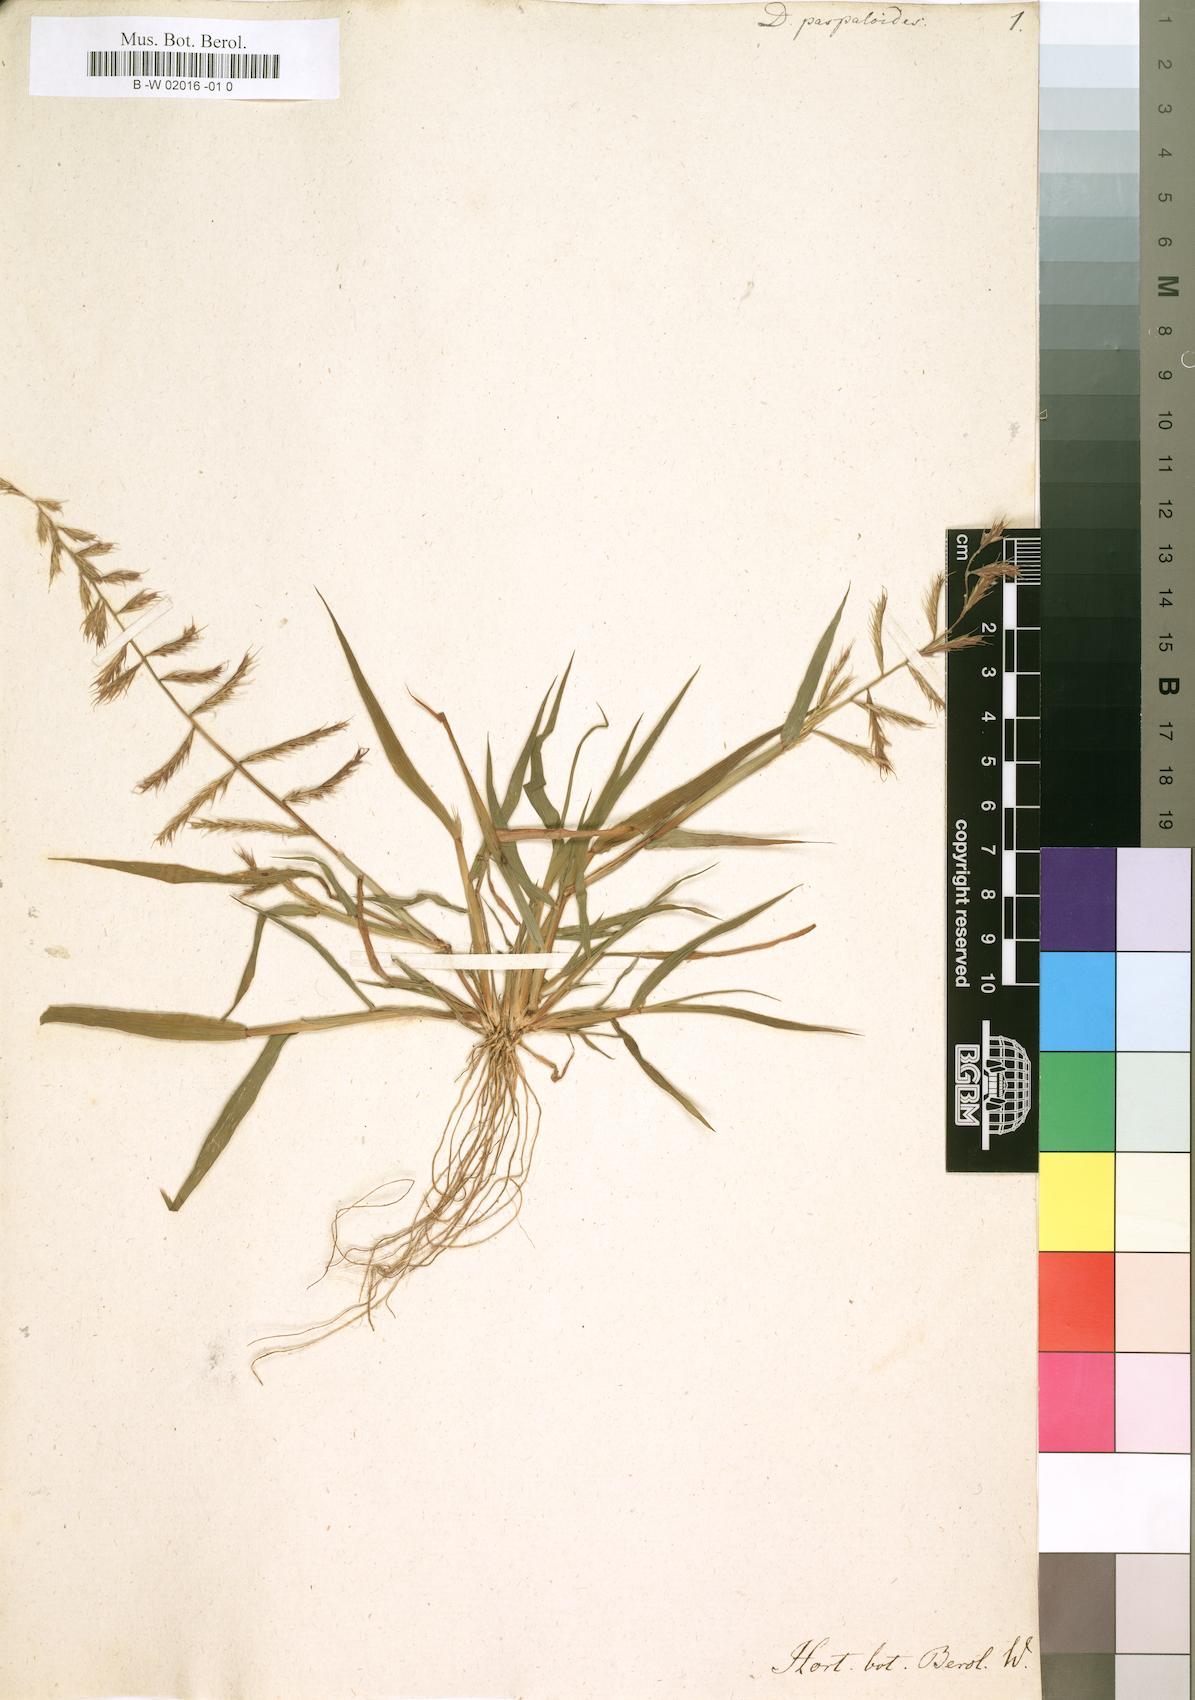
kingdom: Plantae
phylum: Tracheophyta
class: Liliopsida
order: Poales
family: Poaceae
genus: Dinebra
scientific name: Dinebra retroflexa
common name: Viper grass
